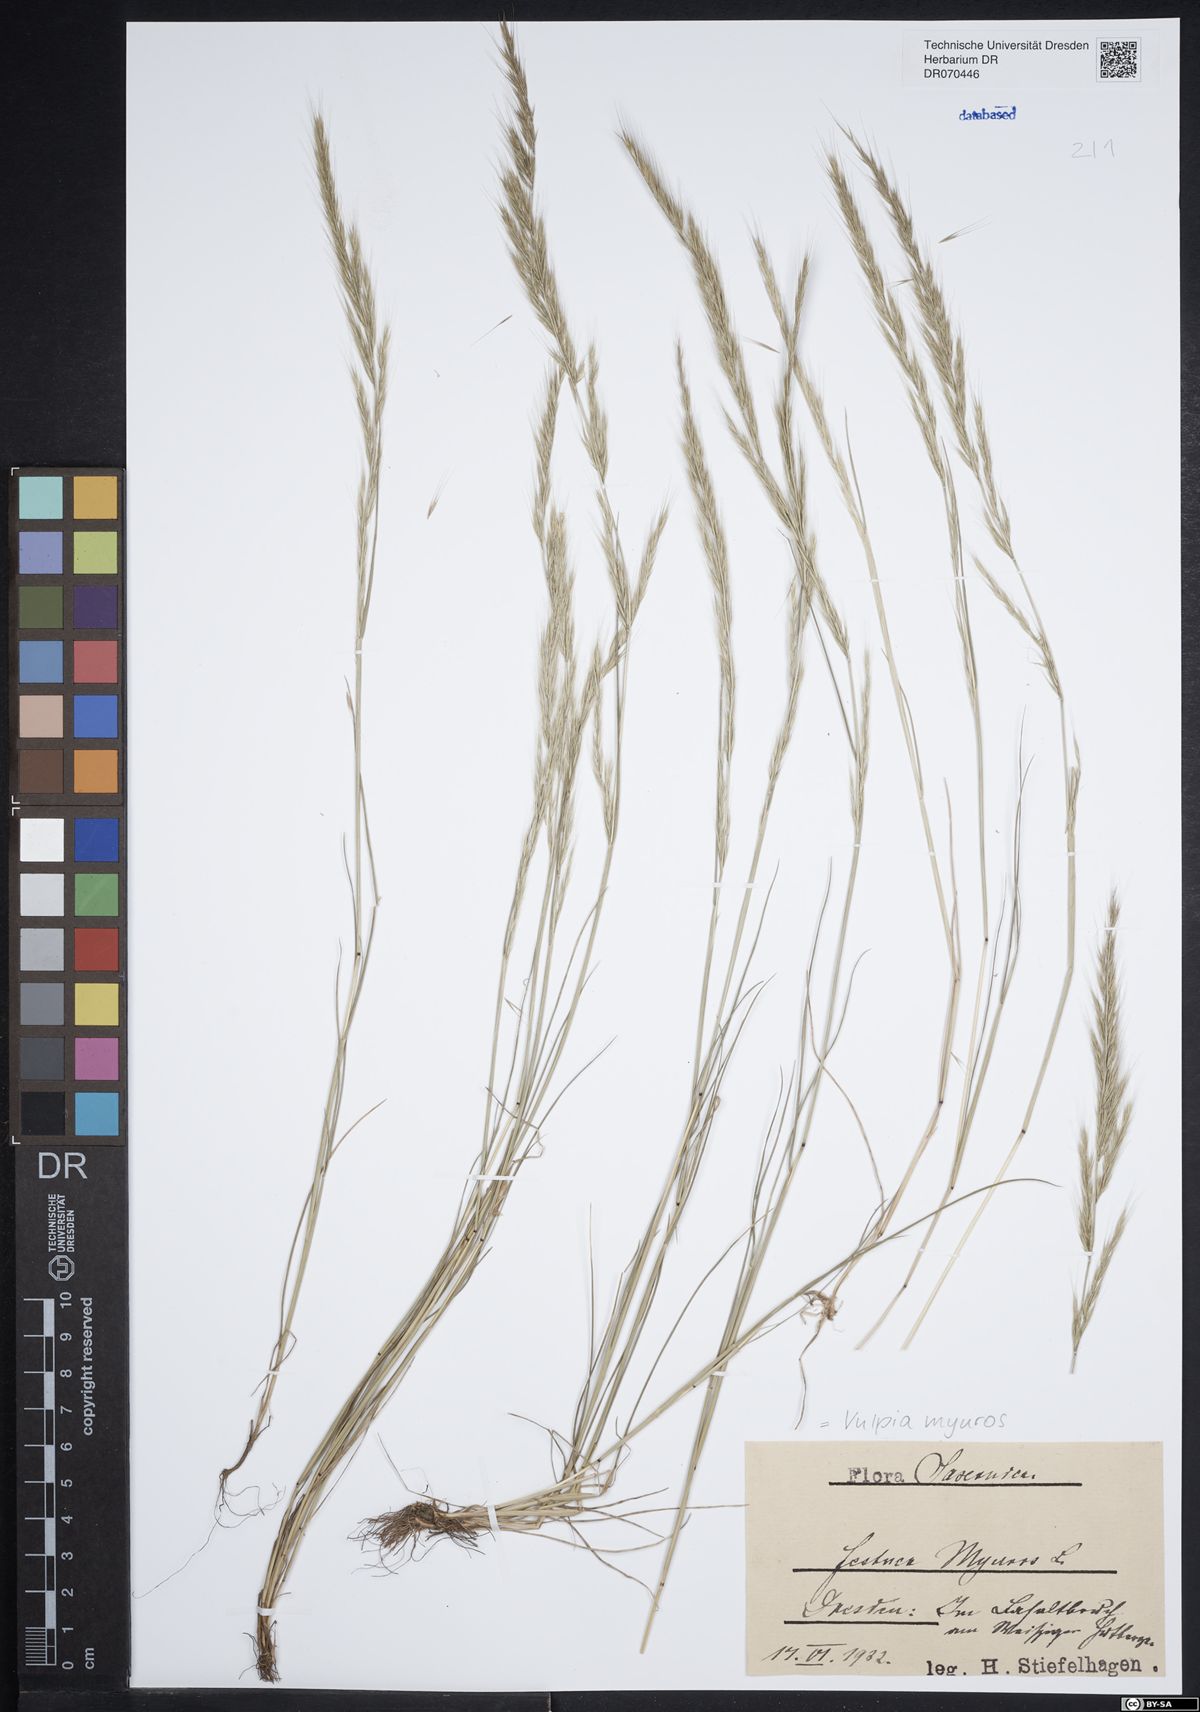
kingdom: Plantae
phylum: Tracheophyta
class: Liliopsida
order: Poales
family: Poaceae
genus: Festuca
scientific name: Festuca myuros
